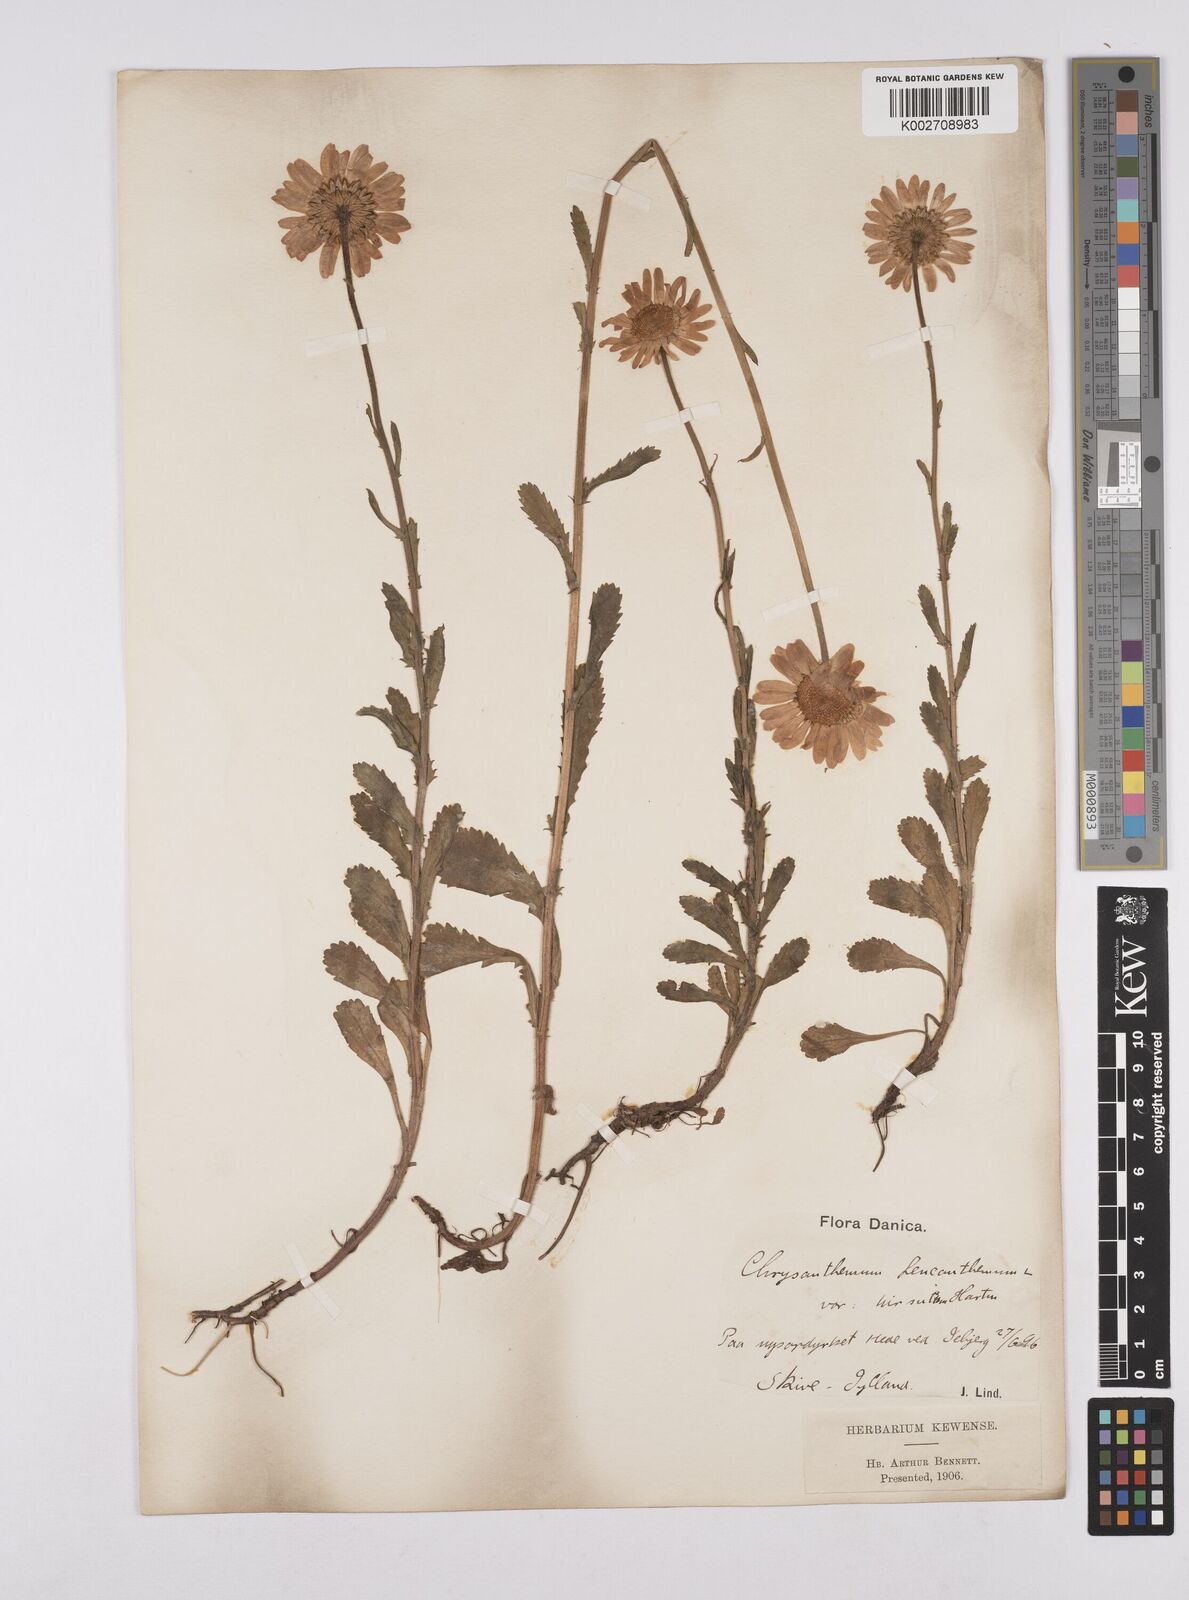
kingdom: Plantae
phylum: Tracheophyta
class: Magnoliopsida
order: Asterales
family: Asteraceae
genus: Leucanthemum
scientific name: Leucanthemum vulgare
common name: Oxeye daisy
